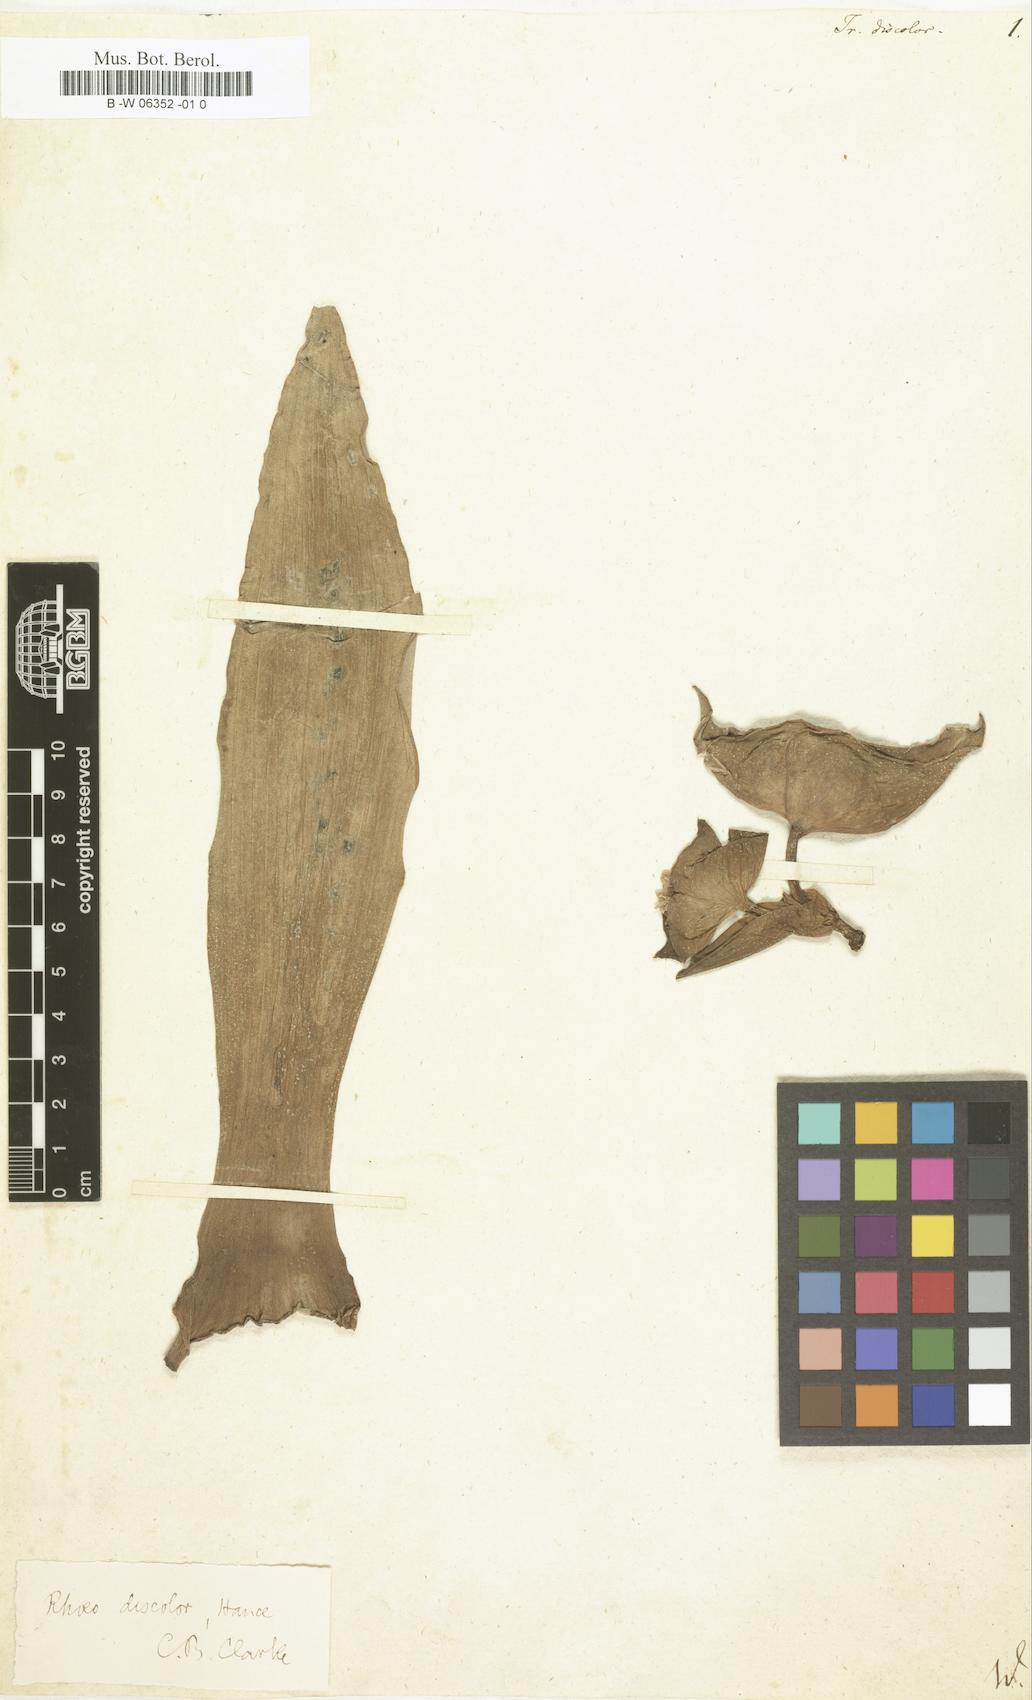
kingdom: Plantae
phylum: Tracheophyta
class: Liliopsida
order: Commelinales
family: Commelinaceae
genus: Tradescantia
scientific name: Tradescantia
